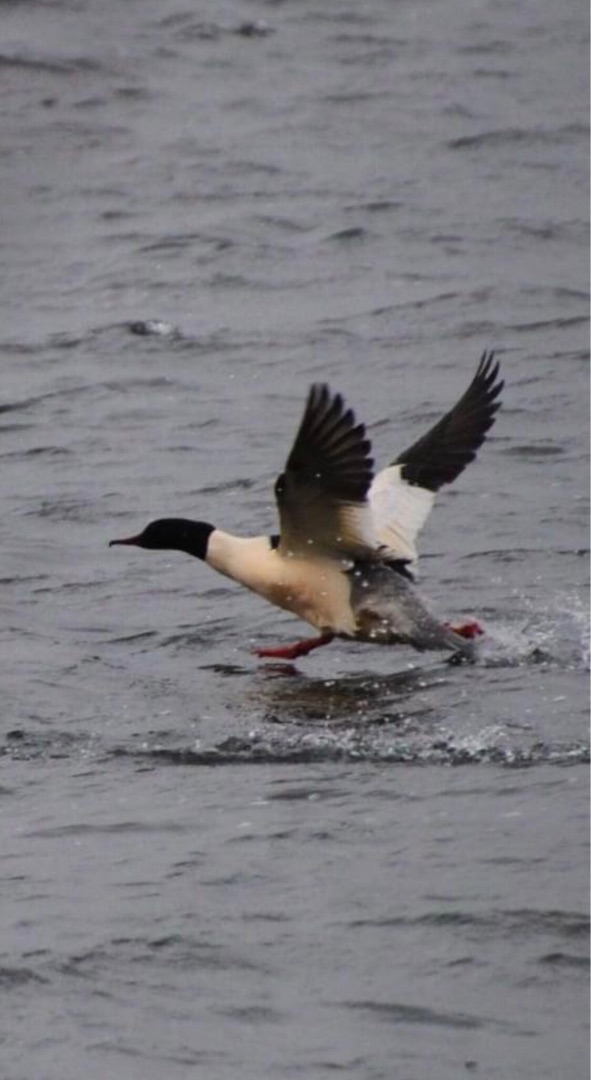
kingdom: Animalia
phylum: Chordata
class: Aves
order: Anseriformes
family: Anatidae
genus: Mergus
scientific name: Mergus merganser
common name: Stor skallesluger
